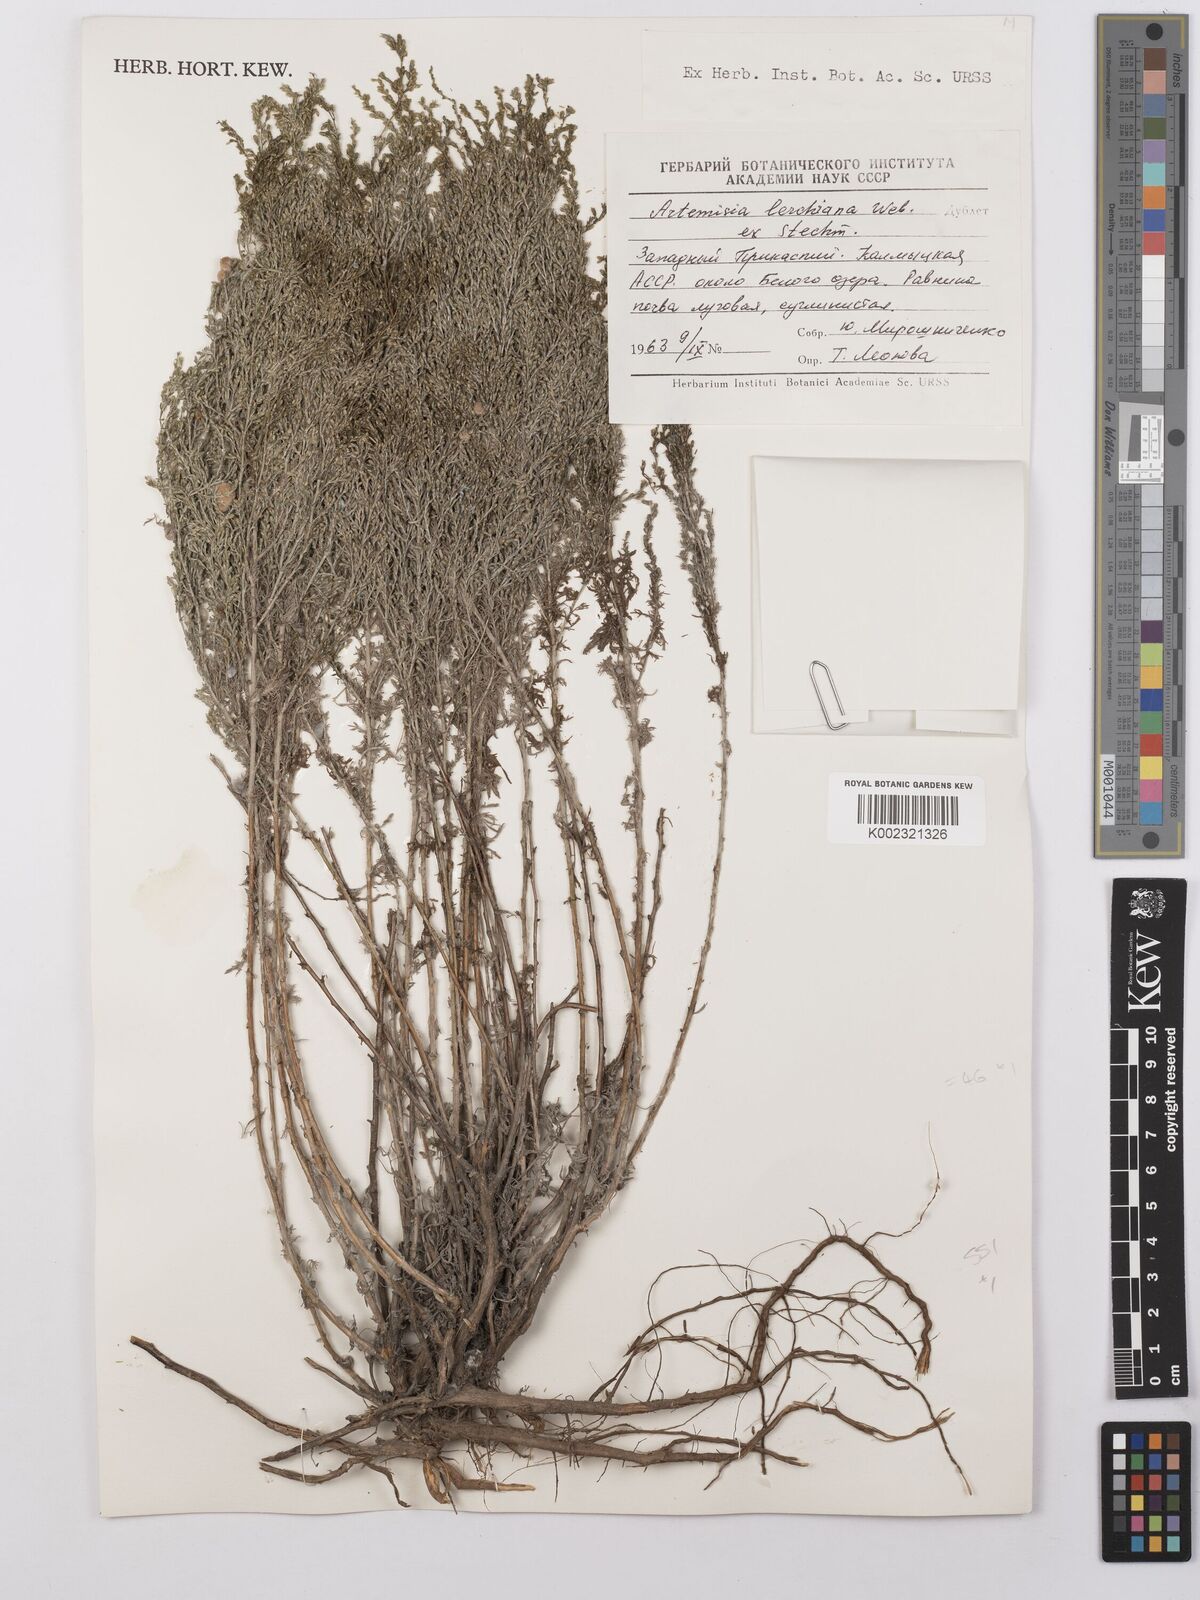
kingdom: Plantae
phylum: Tracheophyta
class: Magnoliopsida
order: Asterales
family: Asteraceae
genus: Artemisia
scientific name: Artemisia taurica
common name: Tauric wormwood
